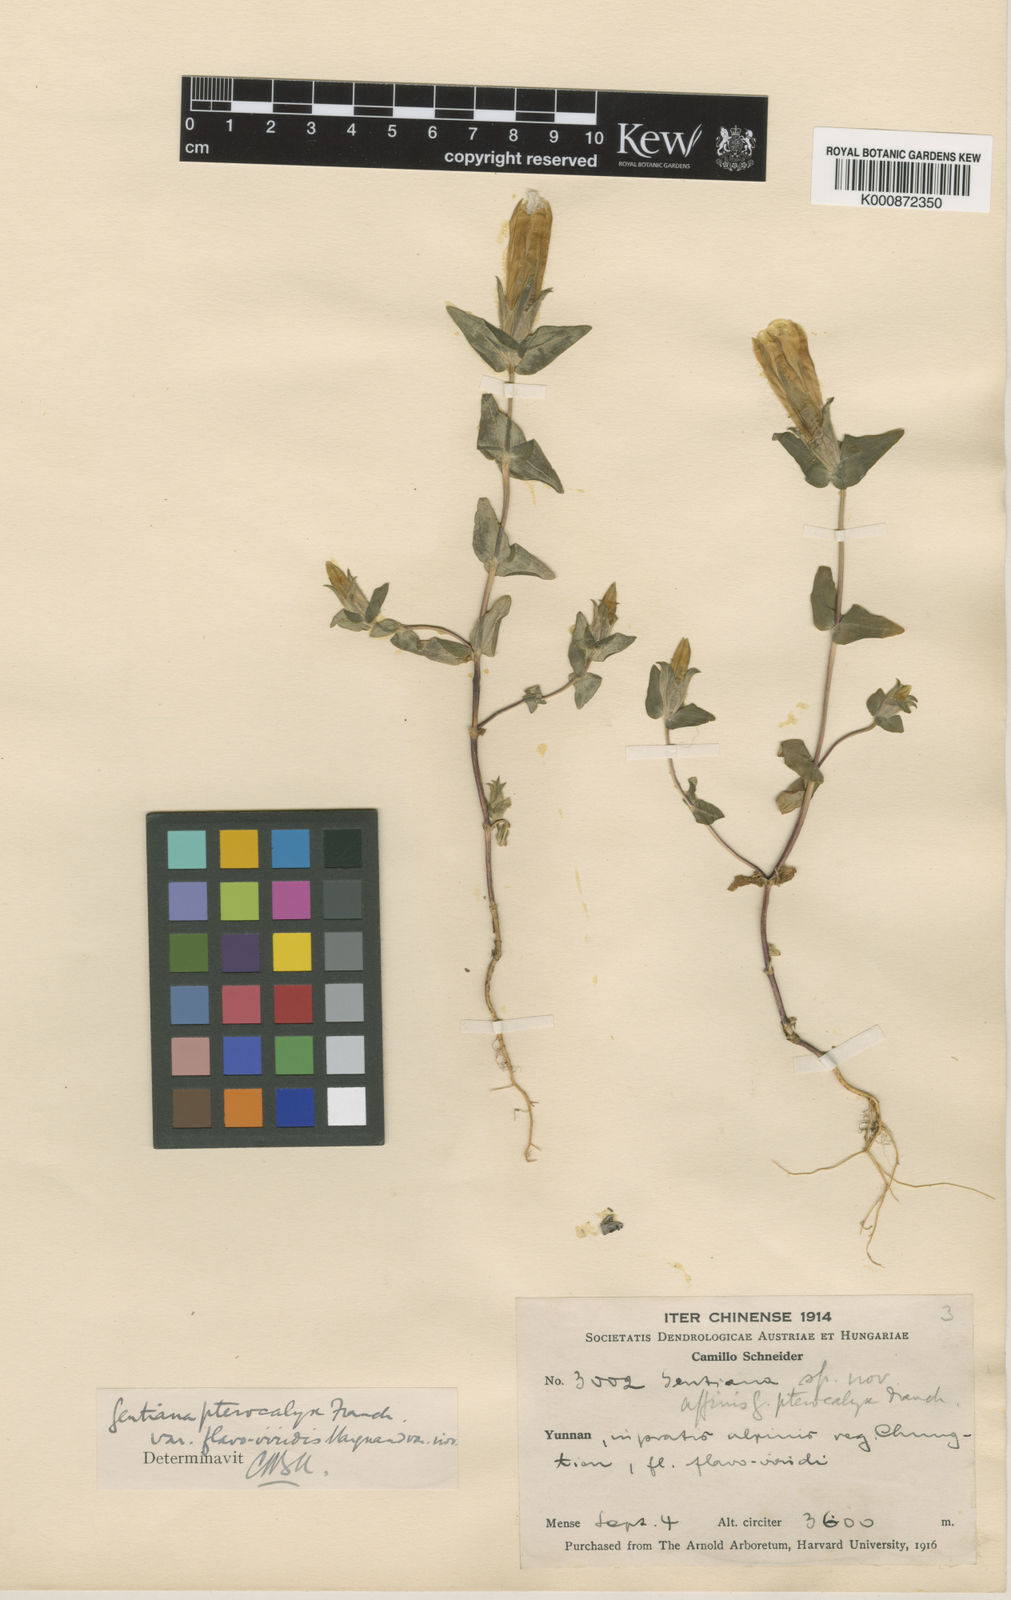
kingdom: Plantae
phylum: Tracheophyta
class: Magnoliopsida
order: Gentianales
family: Gentianaceae
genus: Sinogentiana
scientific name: Sinogentiana souliei
